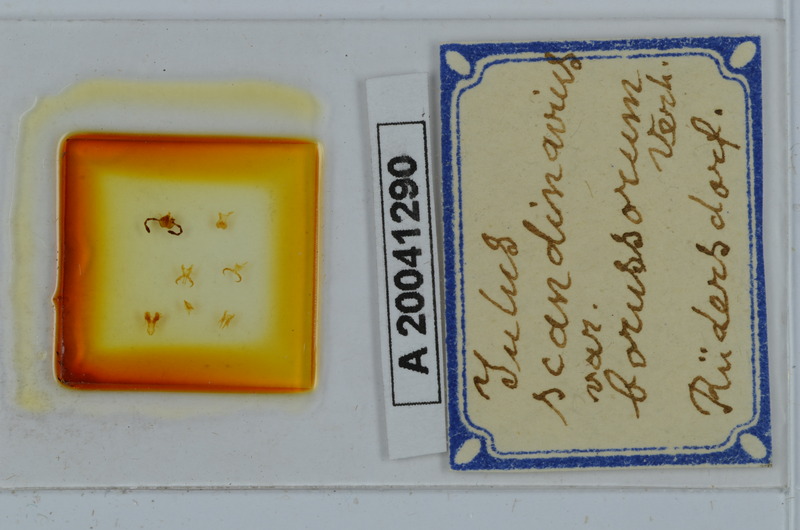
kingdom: Animalia
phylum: Arthropoda
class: Diplopoda
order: Julida
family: Julidae
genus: Julus
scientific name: Julus scandinavius
